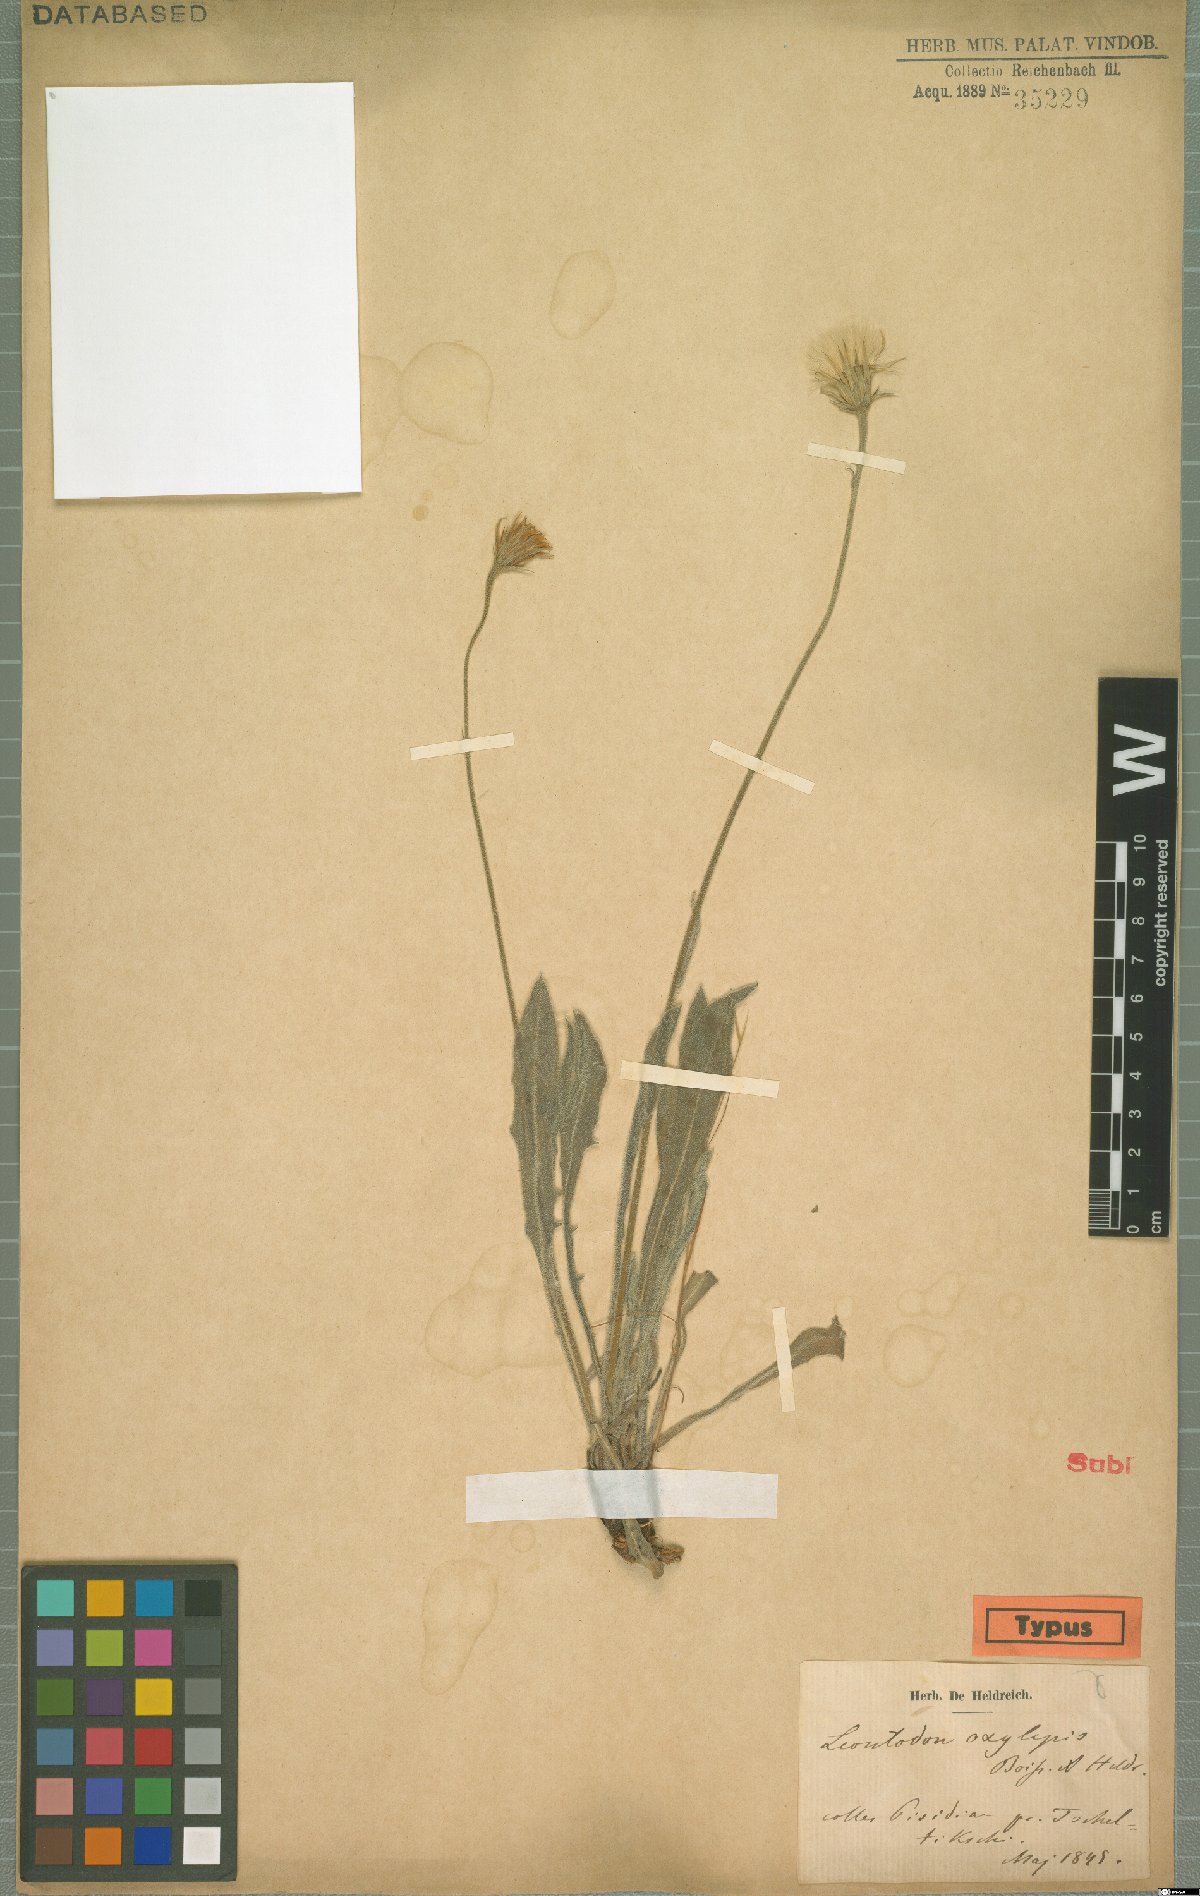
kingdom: Plantae
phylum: Tracheophyta
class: Magnoliopsida
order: Asterales
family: Asteraceae
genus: Leontodon
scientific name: Leontodon oxylepis
